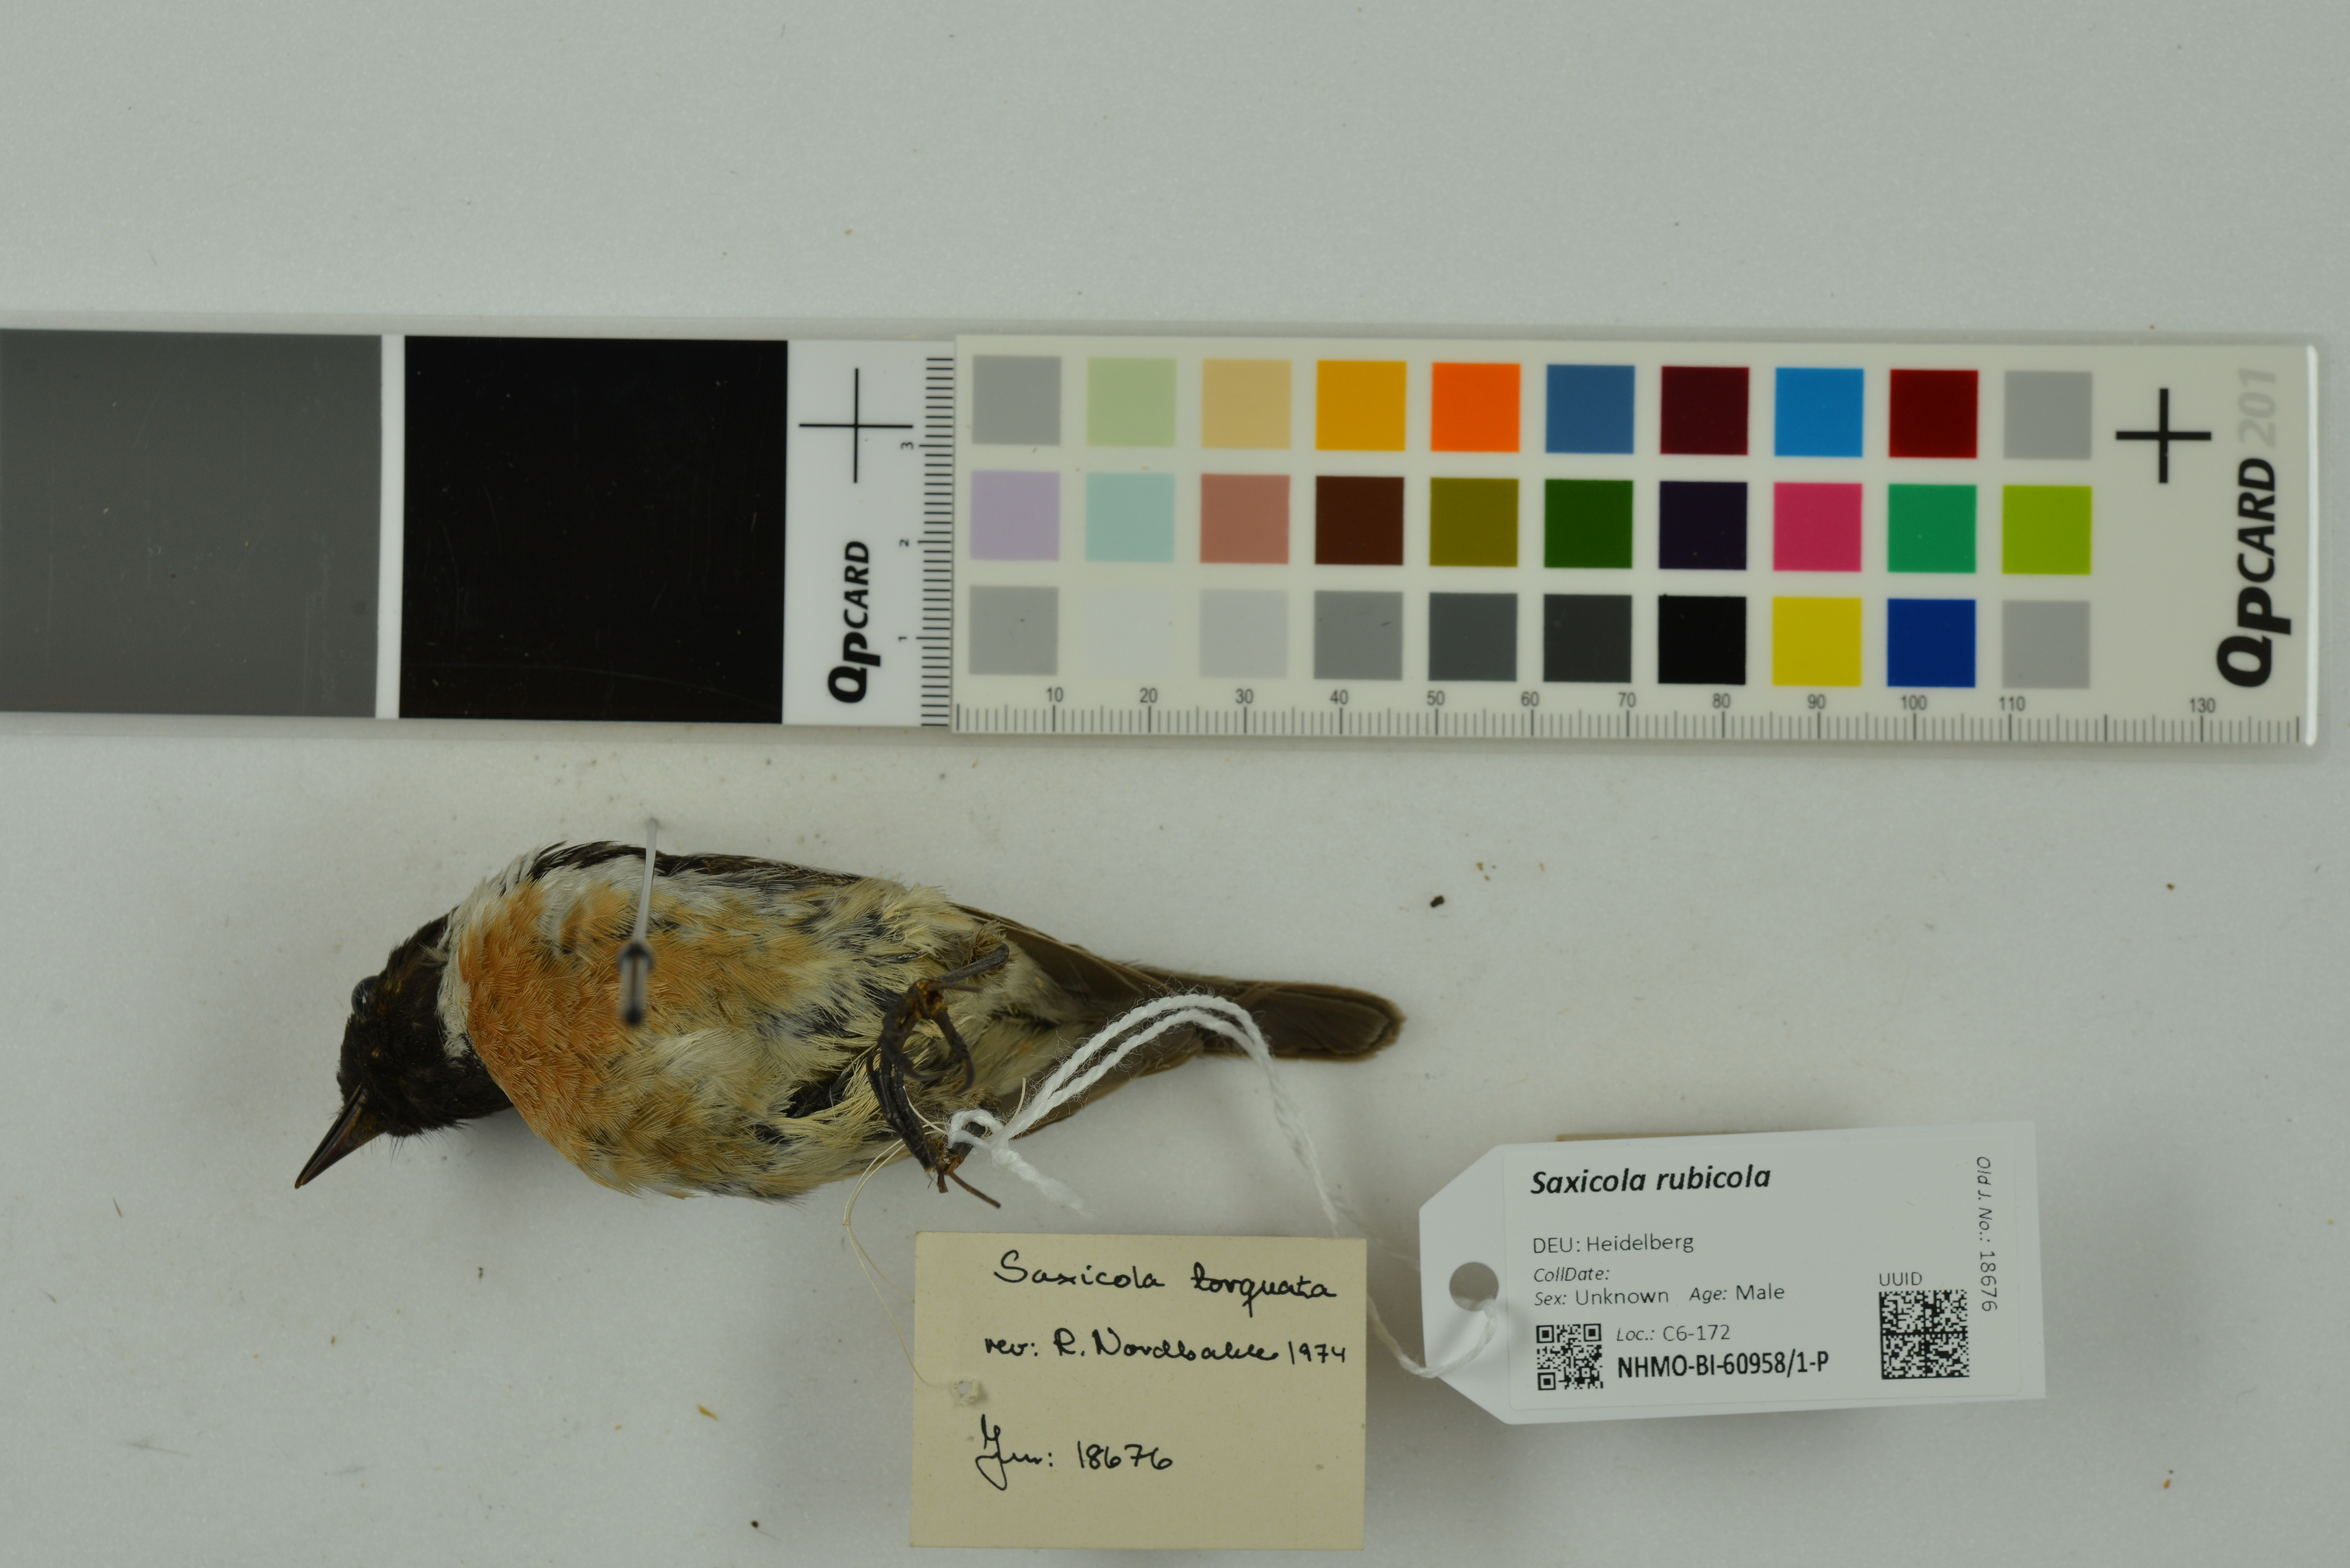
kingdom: Animalia
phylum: Chordata
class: Aves
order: Passeriformes
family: Muscicapidae
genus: Saxicola
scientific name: Saxicola rubicola
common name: European stonechat
